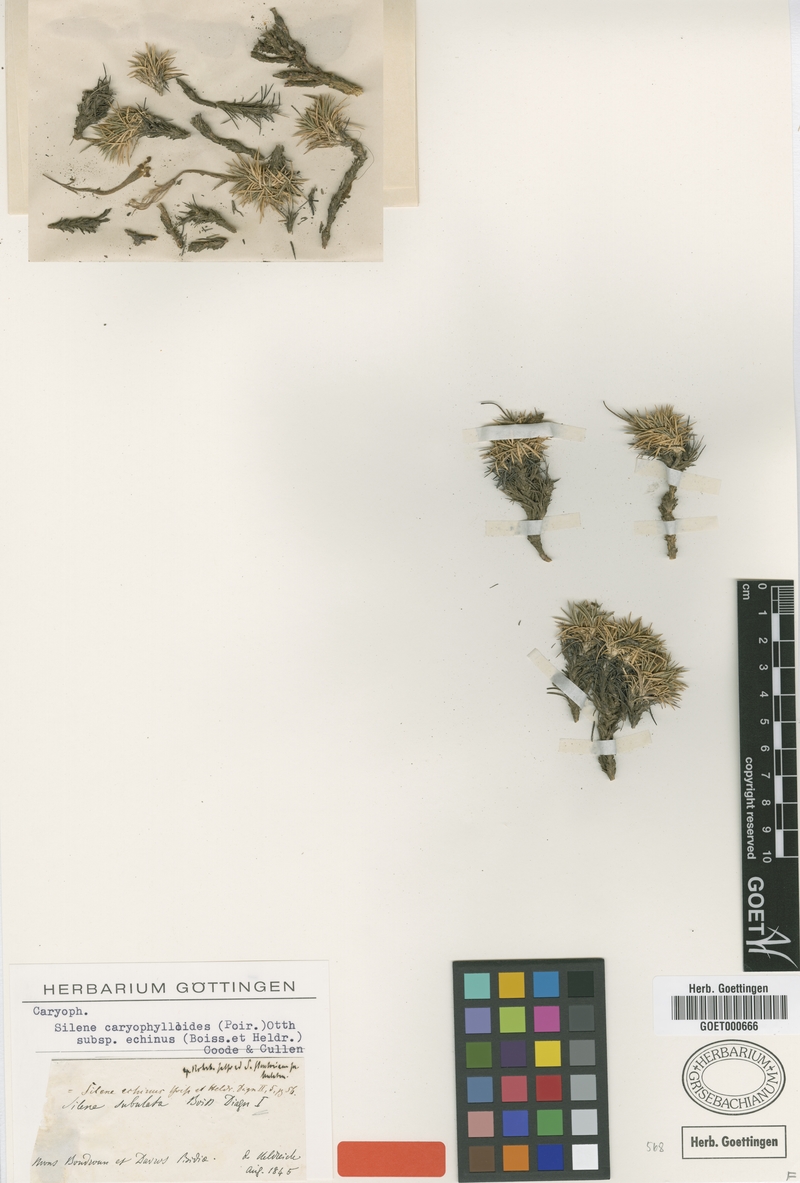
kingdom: Plantae
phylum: Tracheophyta
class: Magnoliopsida
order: Caryophyllales
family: Caryophyllaceae
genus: Silene
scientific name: Silene caryophylloides
